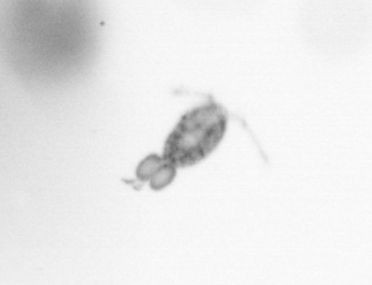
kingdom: Animalia
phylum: Arthropoda
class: Copepoda
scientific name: Copepoda
